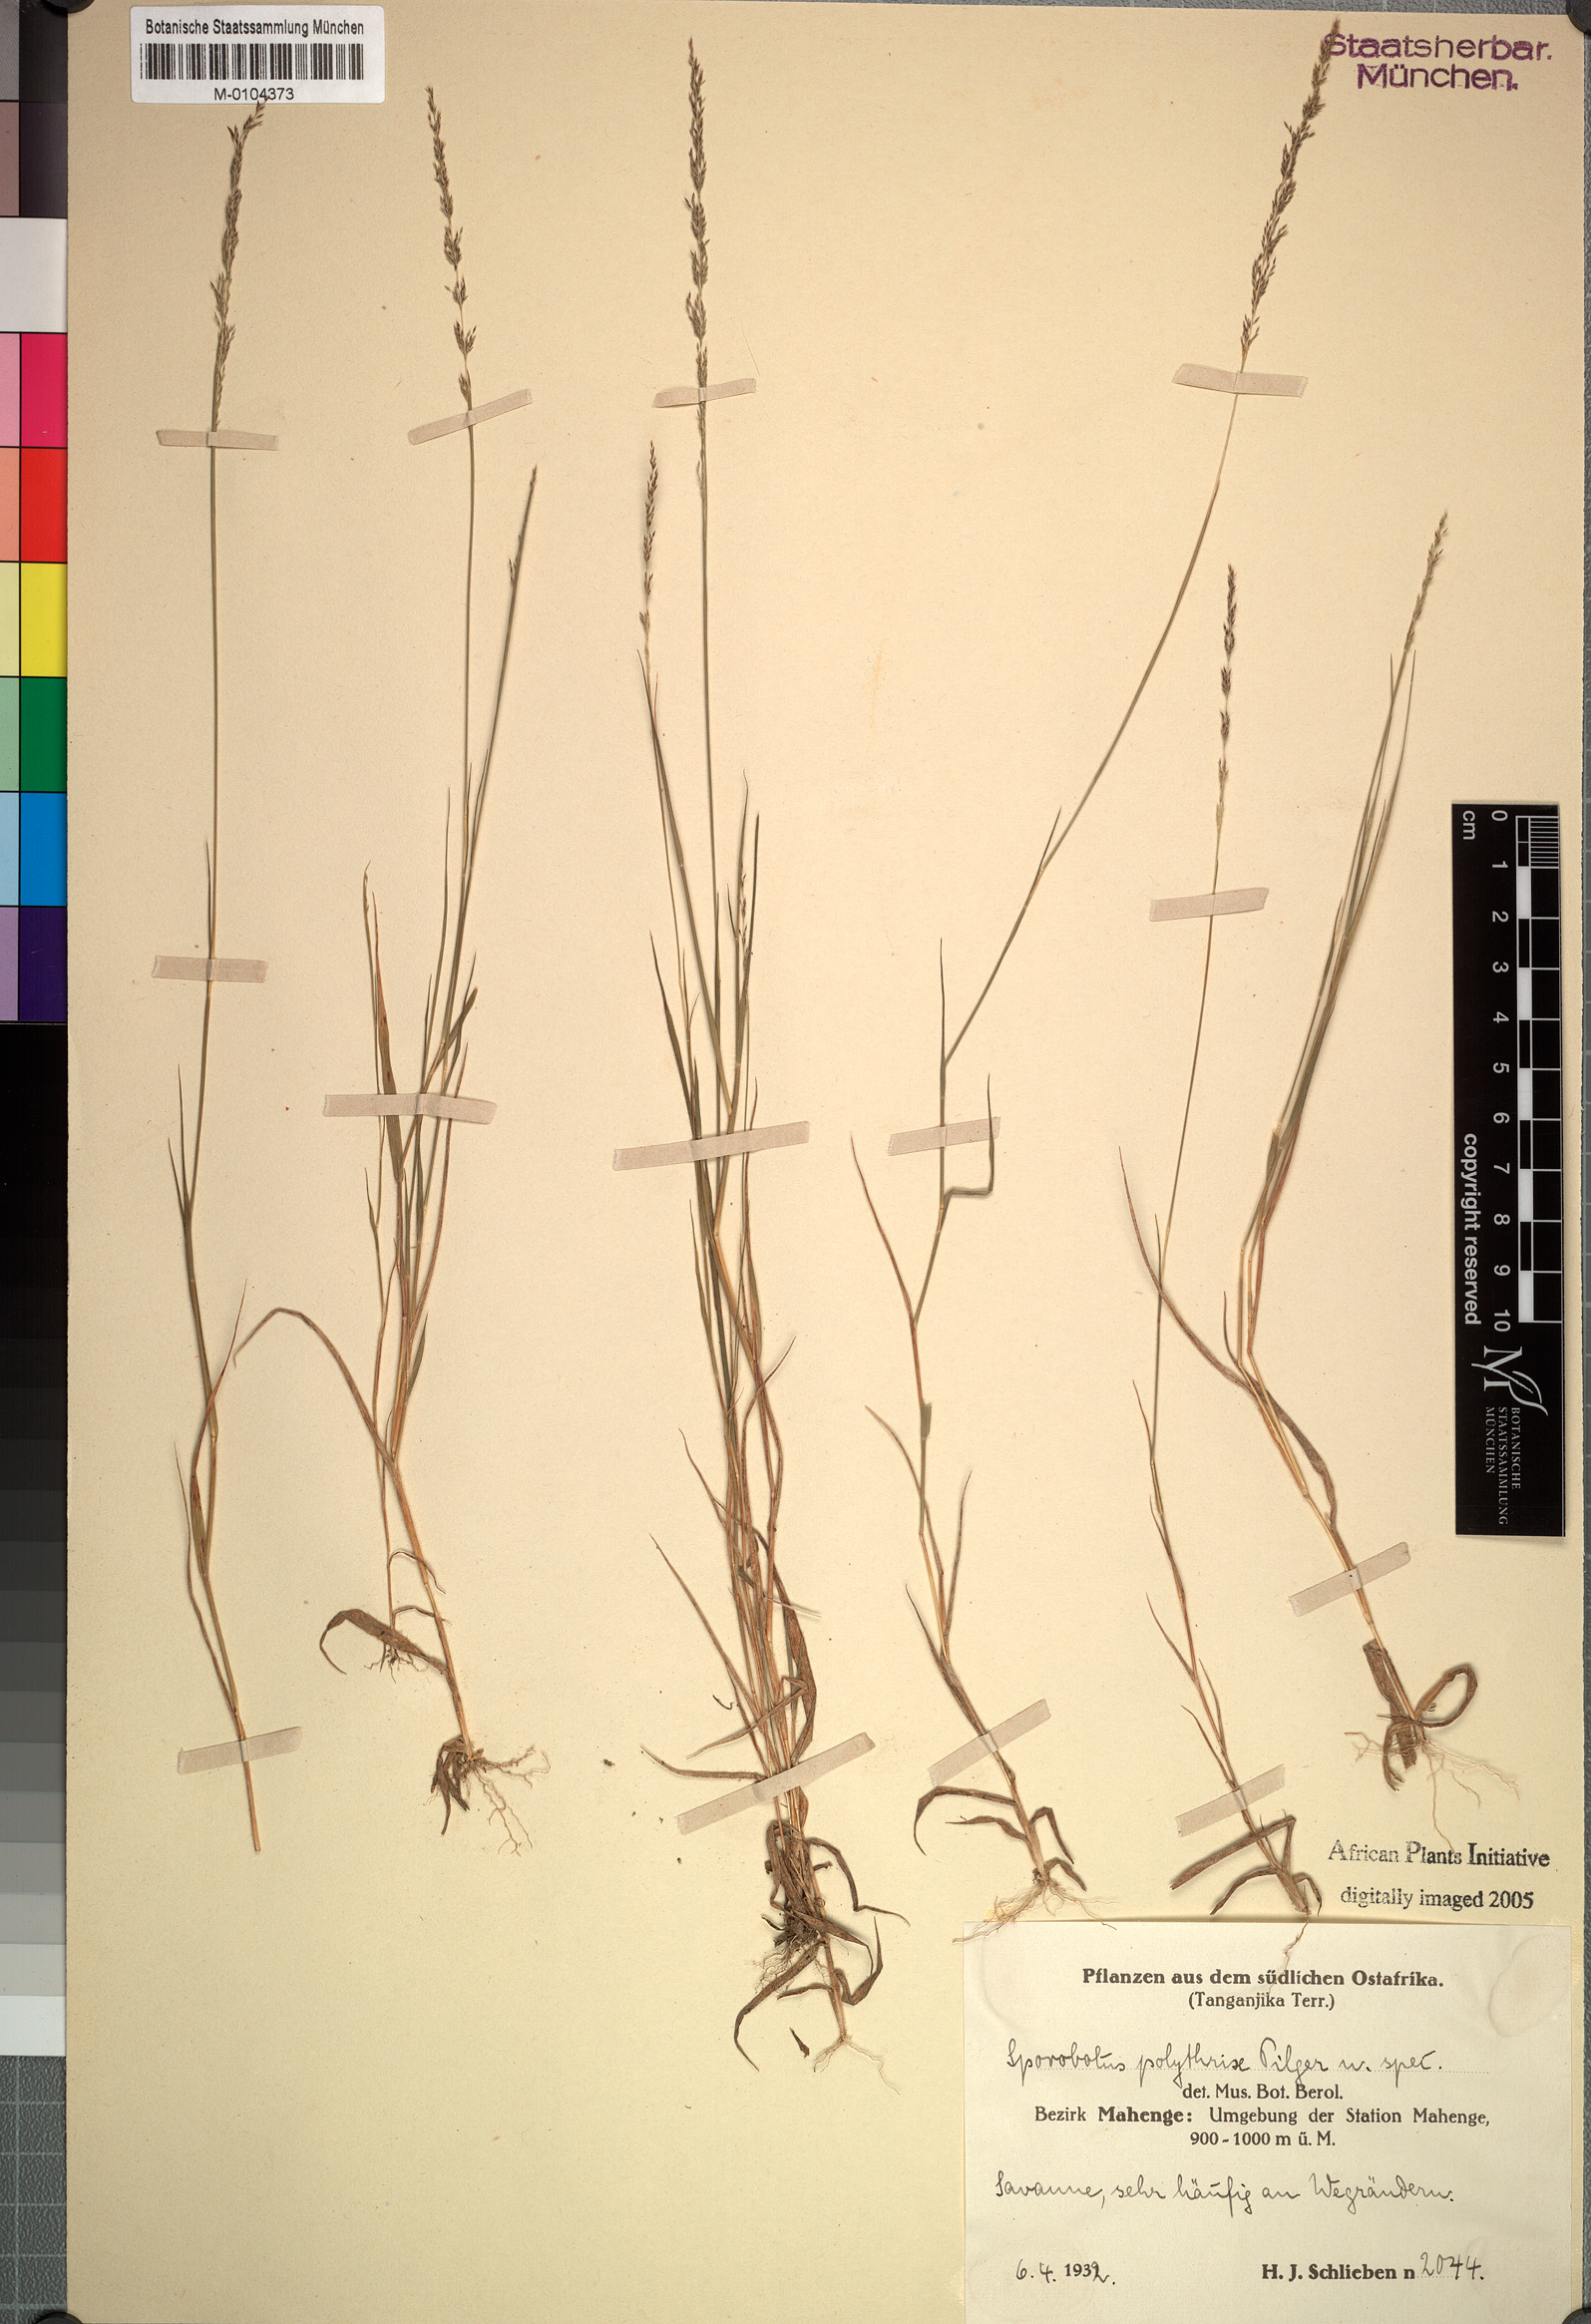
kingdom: Plantae
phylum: Tracheophyta
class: Liliopsida
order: Poales
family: Poaceae
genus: Sporobolus
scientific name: Sporobolus
